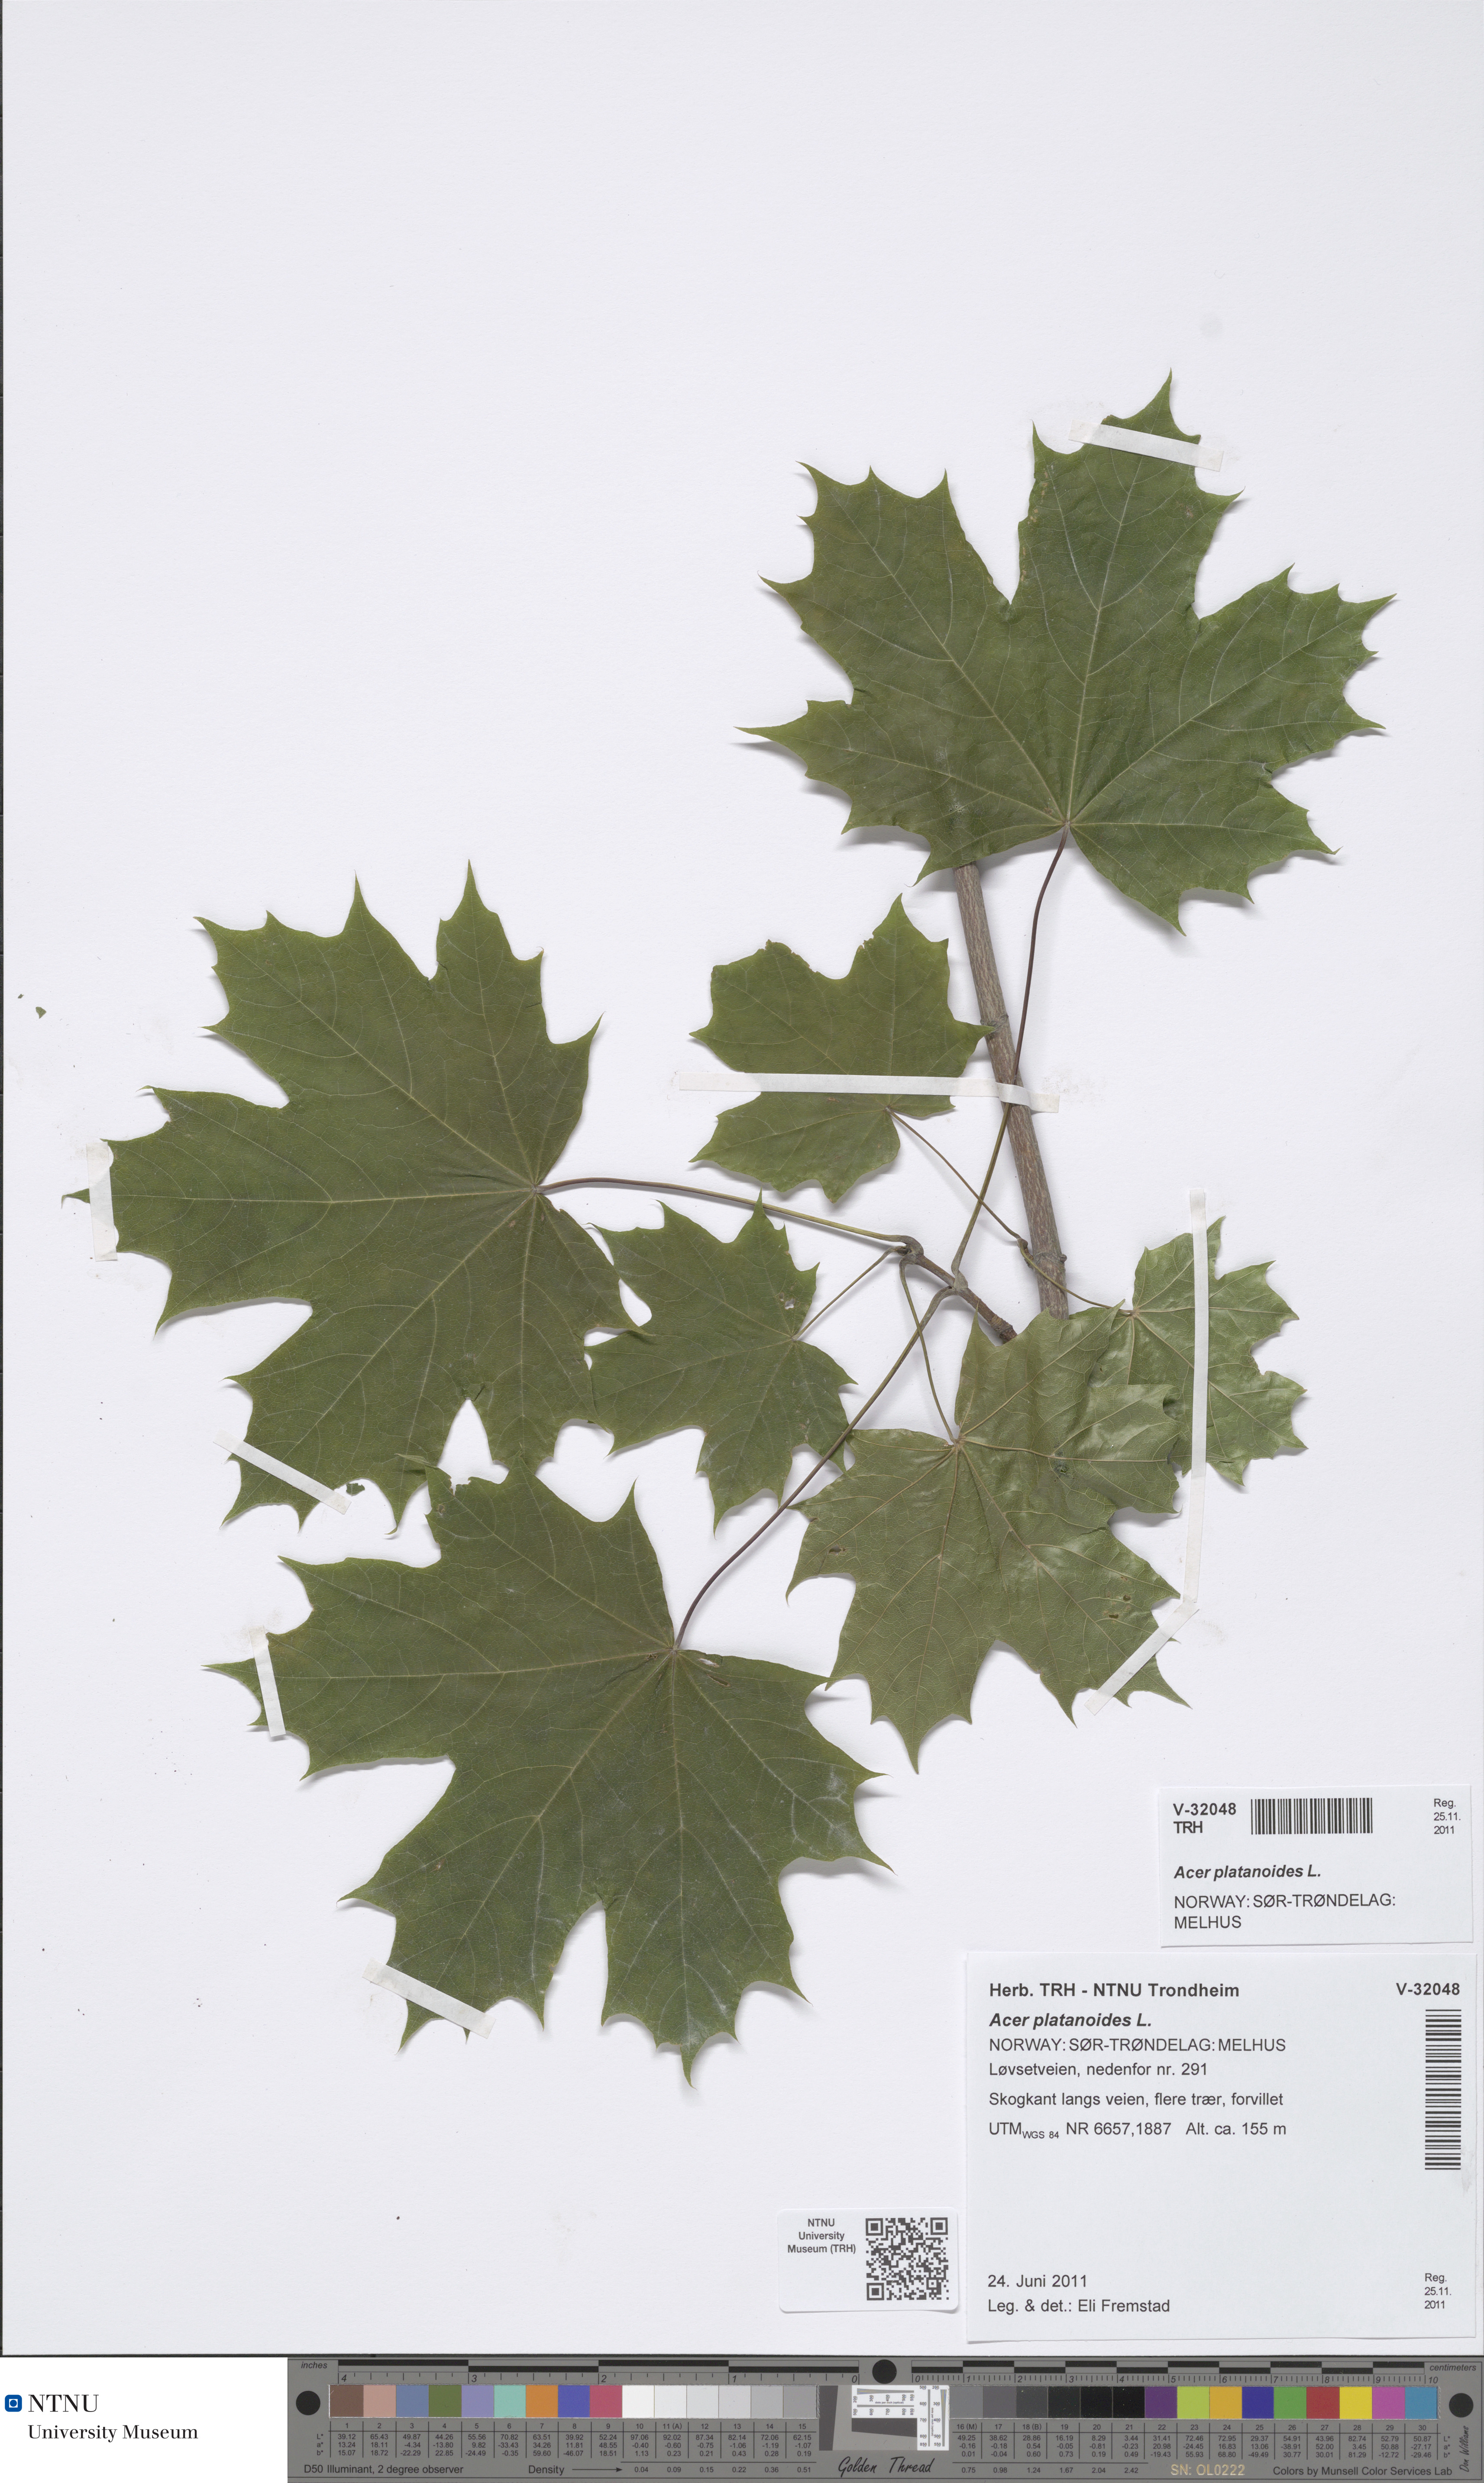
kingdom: Plantae
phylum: Tracheophyta
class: Magnoliopsida
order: Sapindales
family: Sapindaceae
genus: Acer
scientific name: Acer platanoides
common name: Norway maple
